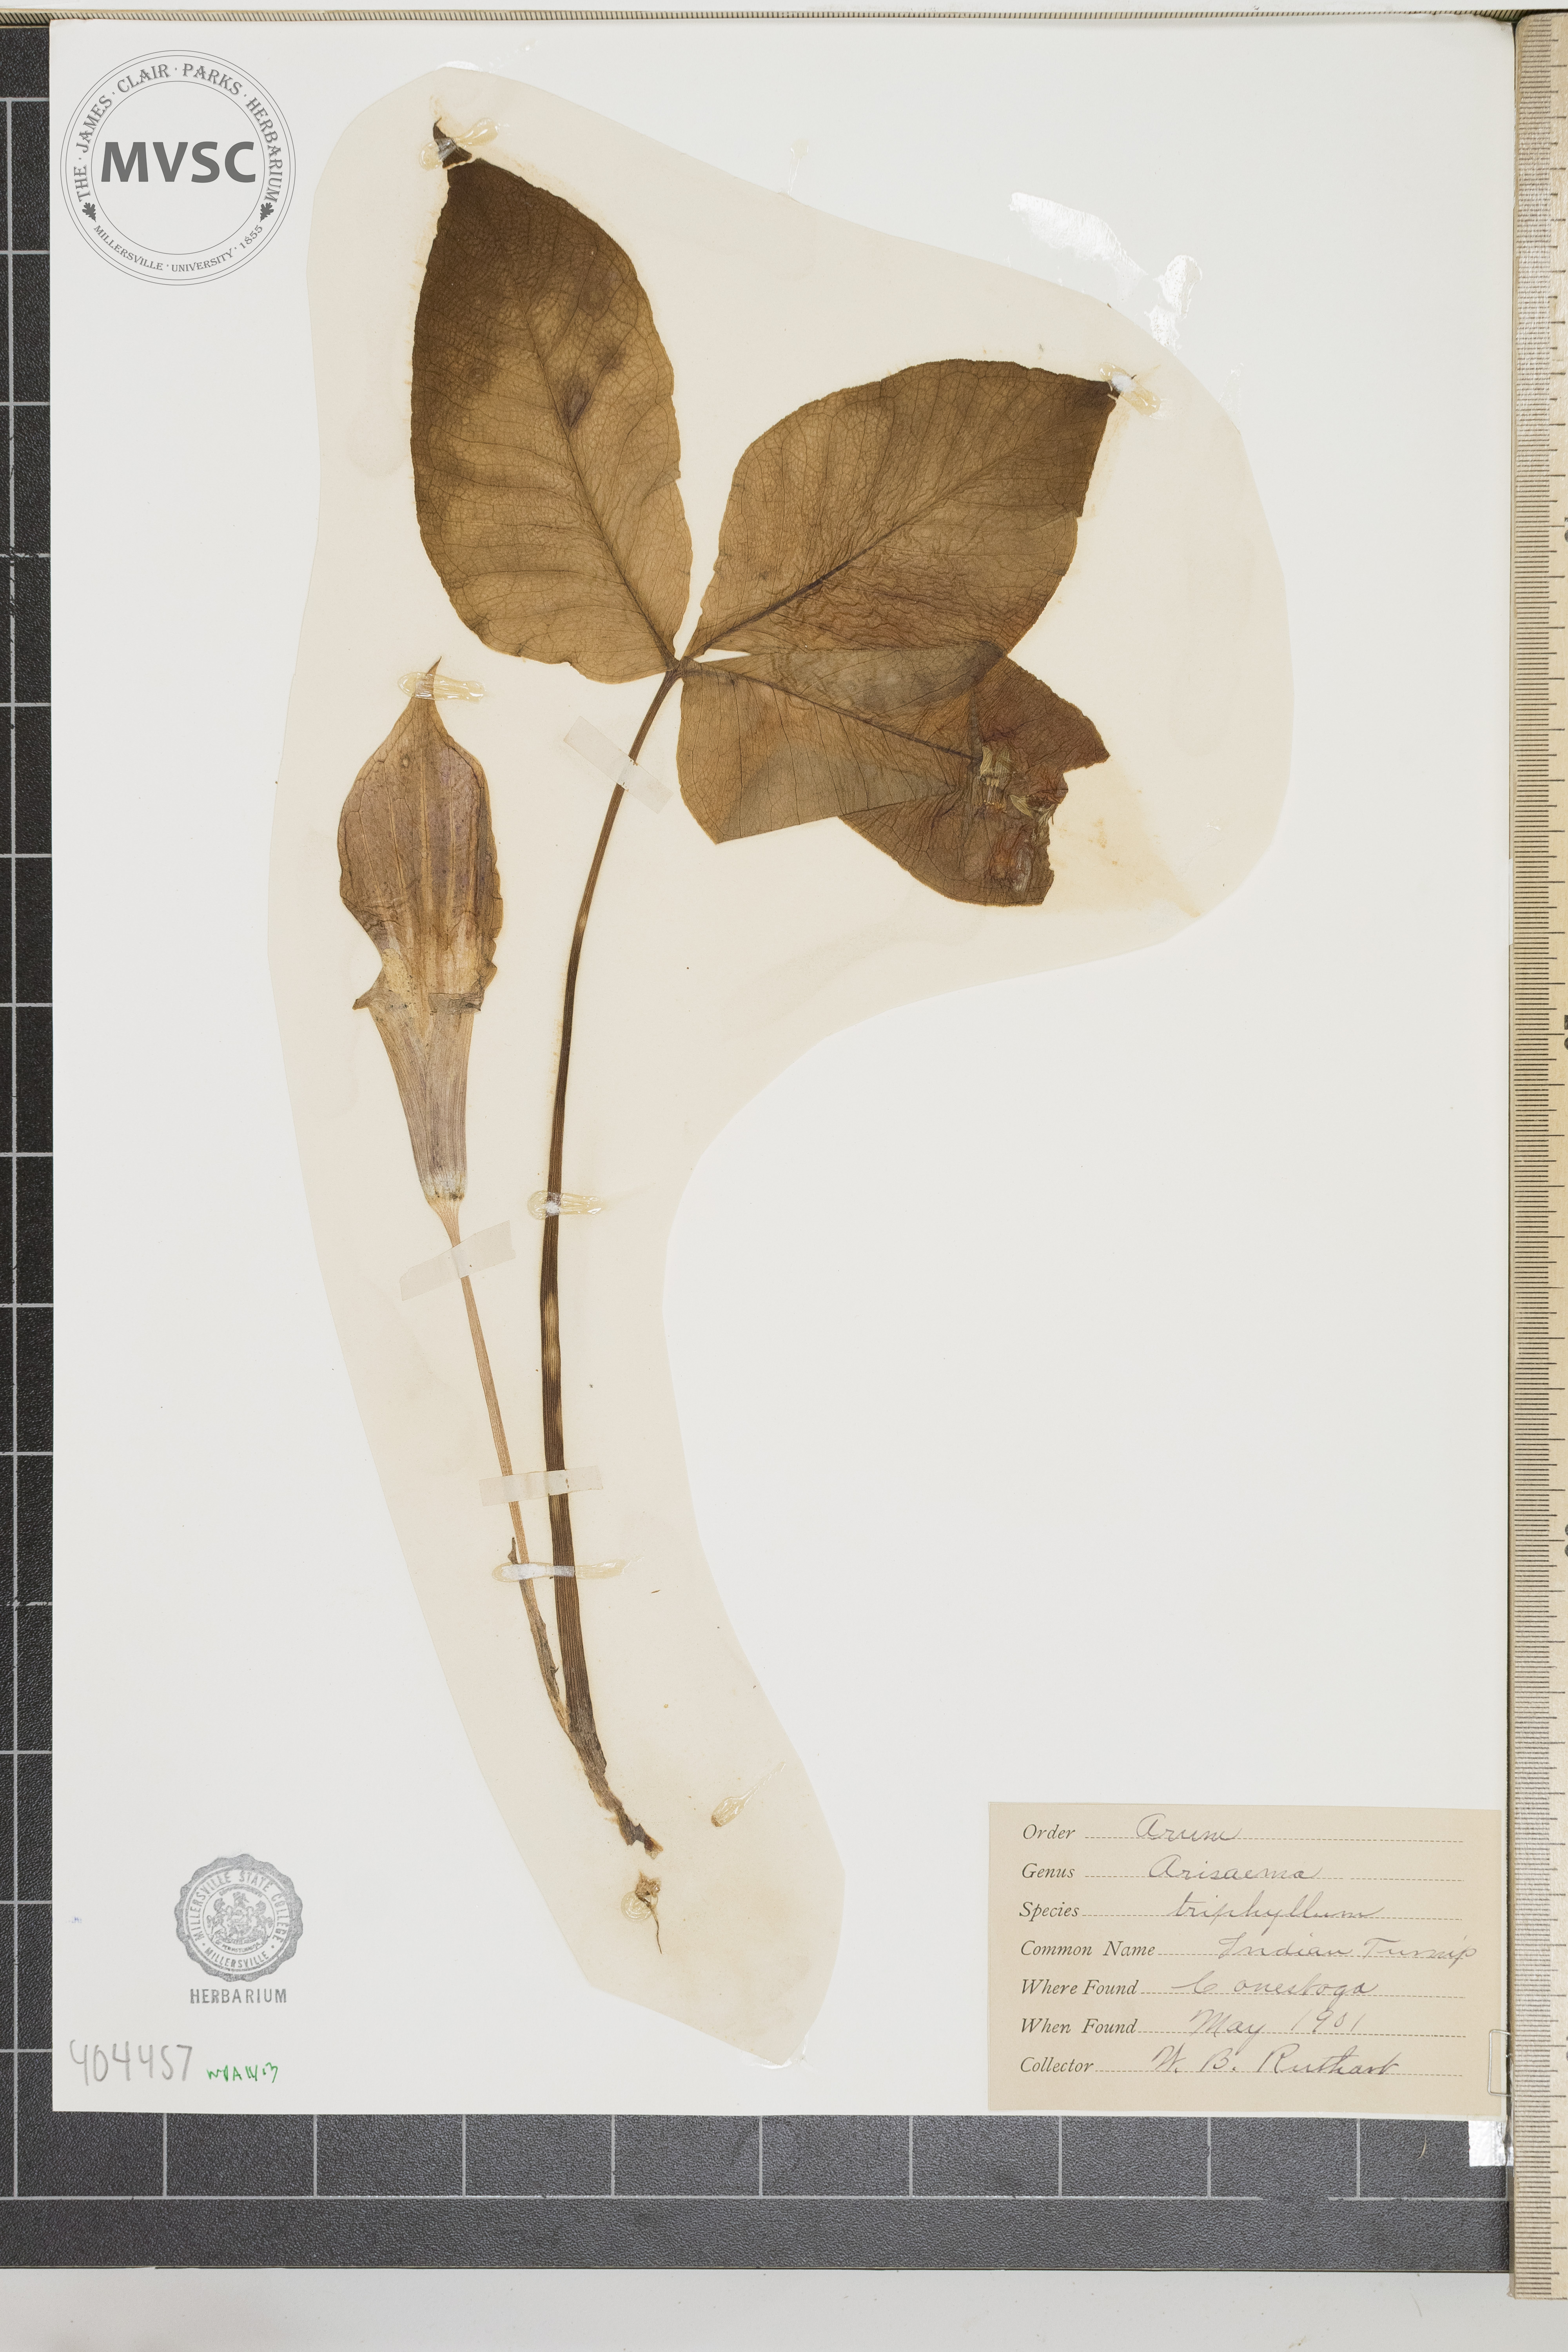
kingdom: Plantae
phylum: Tracheophyta
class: Liliopsida
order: Alismatales
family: Araceae
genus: Arisaema
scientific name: Arisaema triphyllum
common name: Jack-in-the-pulpit
